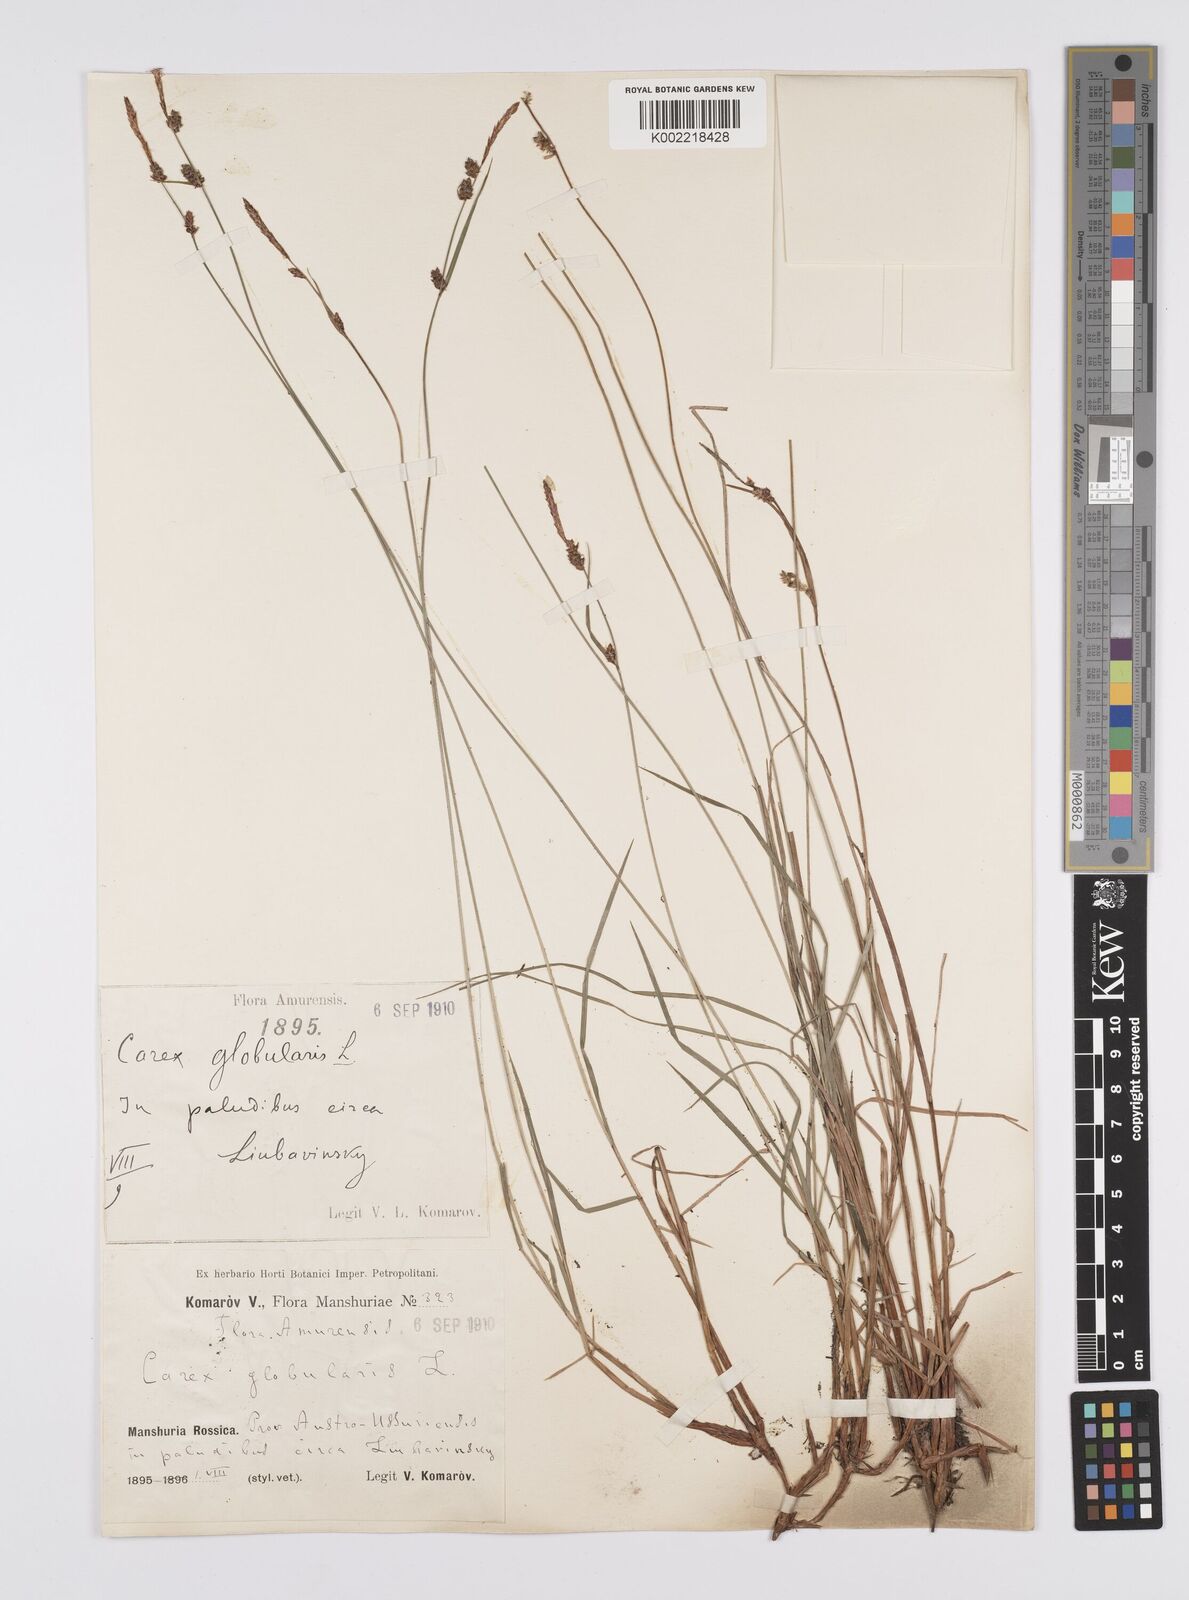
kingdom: Plantae
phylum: Tracheophyta
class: Liliopsida
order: Poales
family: Cyperaceae
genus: Carex
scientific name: Carex globularis
